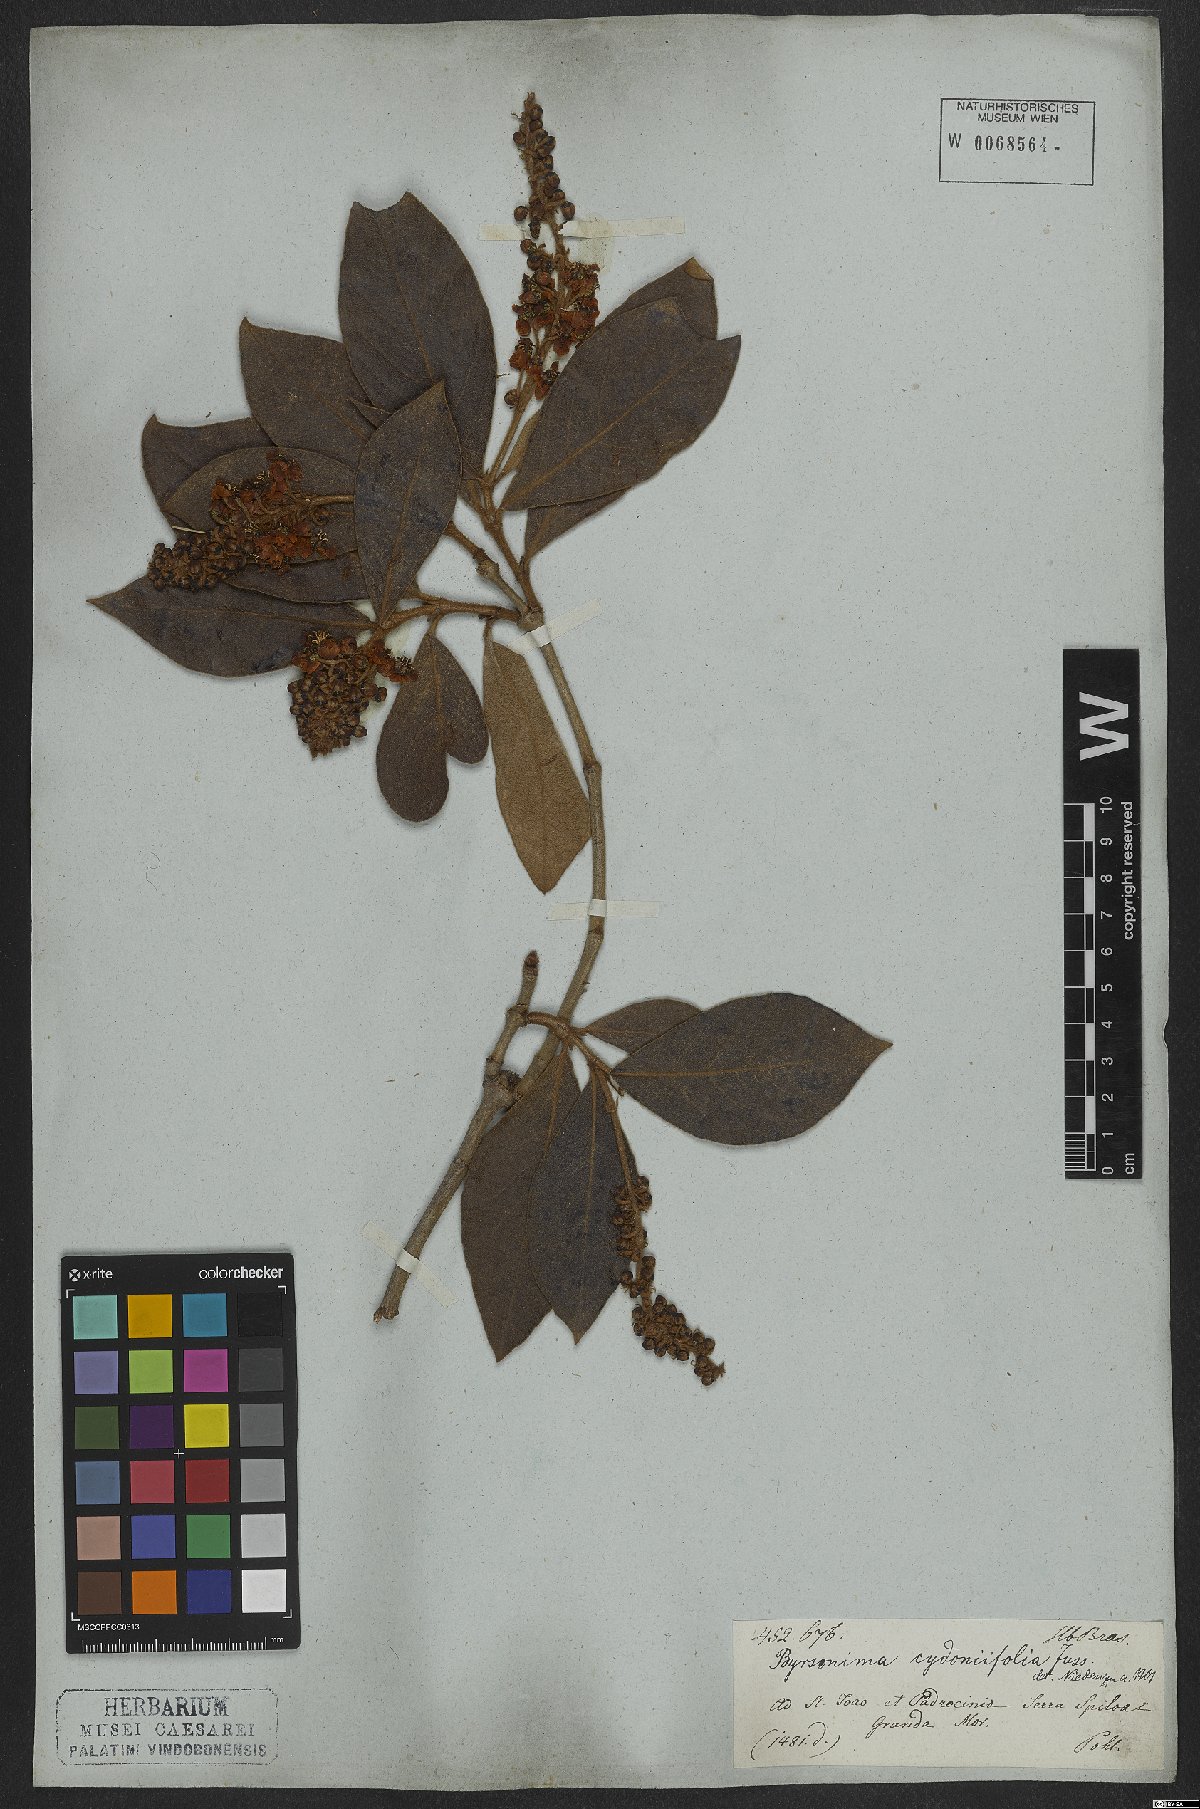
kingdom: Plantae
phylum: Tracheophyta
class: Magnoliopsida
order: Malpighiales
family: Malpighiaceae
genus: Byrsonima
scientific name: Byrsonima cydoniifolia
